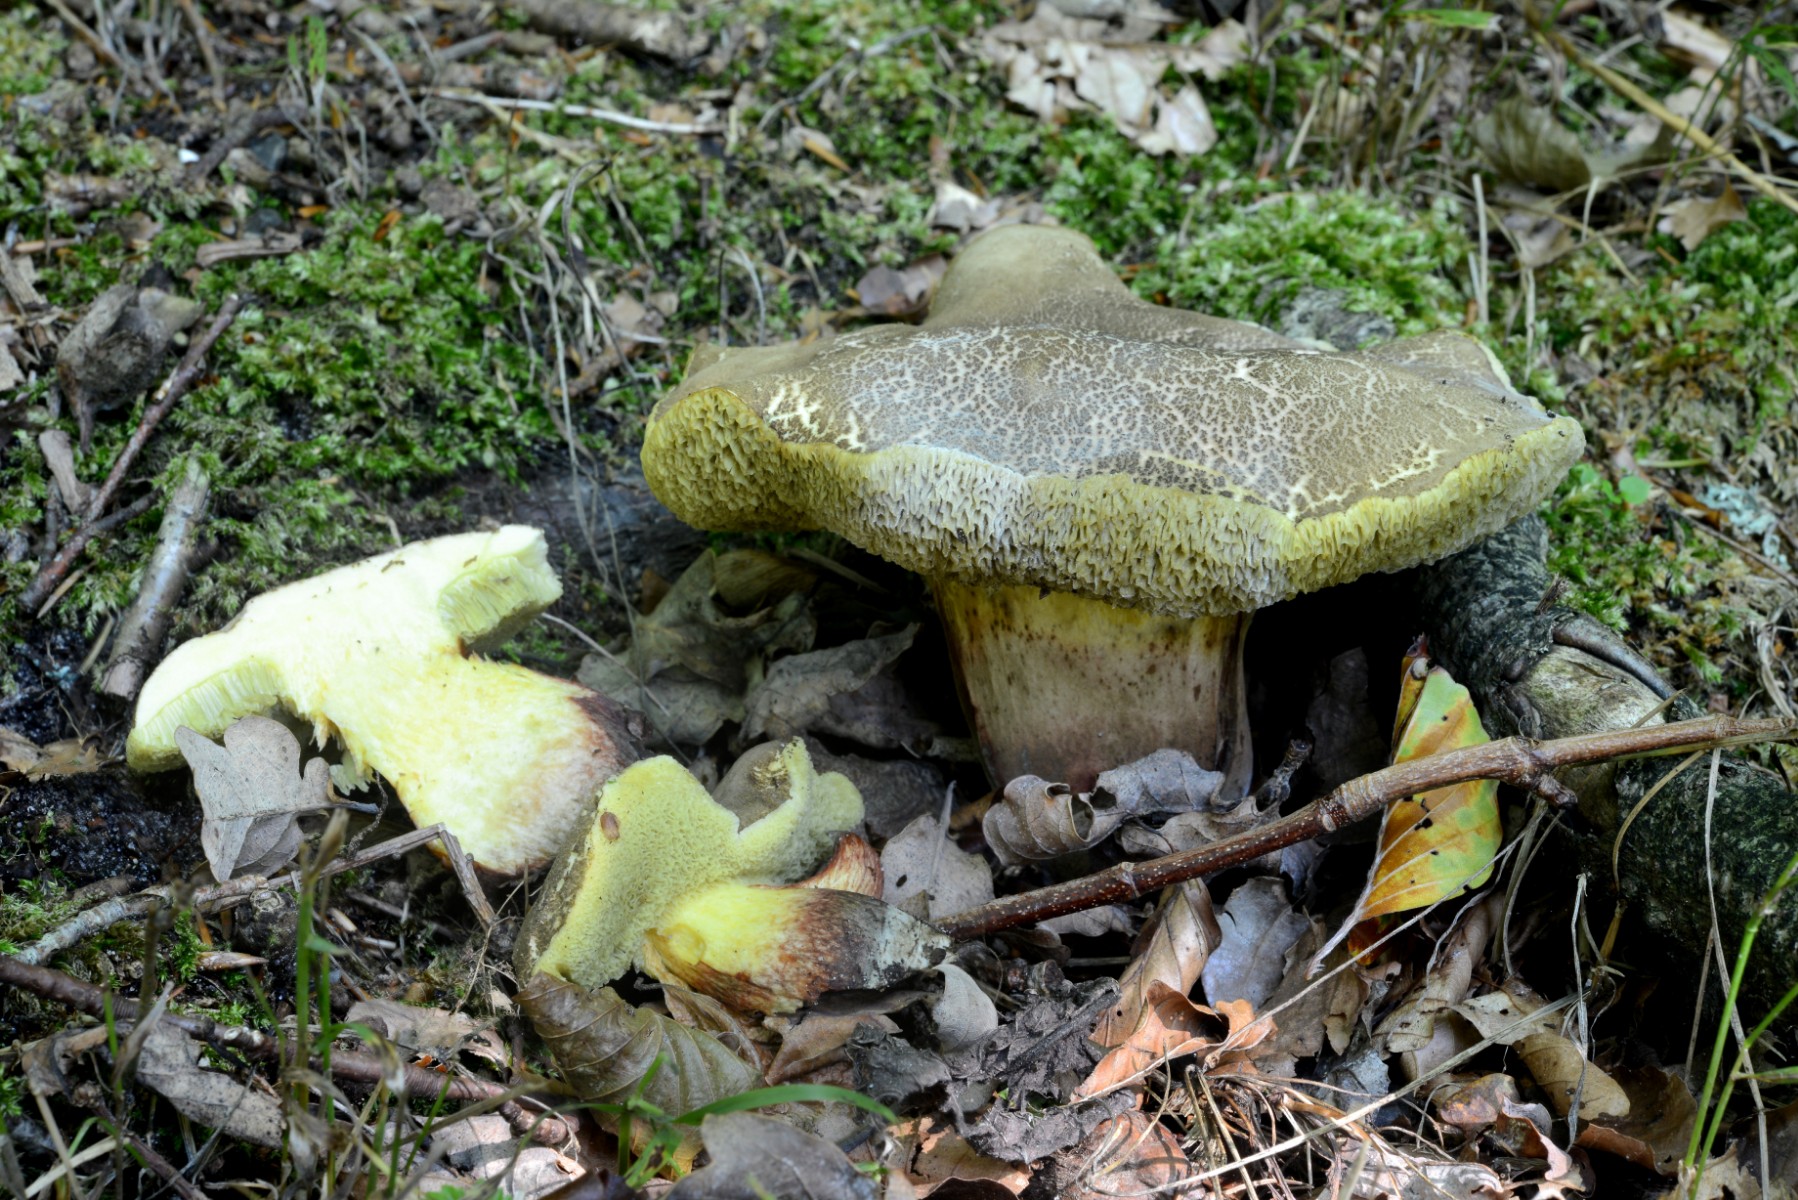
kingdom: Fungi
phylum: Basidiomycota
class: Agaricomycetes
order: Boletales
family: Boletaceae
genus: Xerocomellus
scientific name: Xerocomellus porosporus
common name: hvidsprukken rørhat
